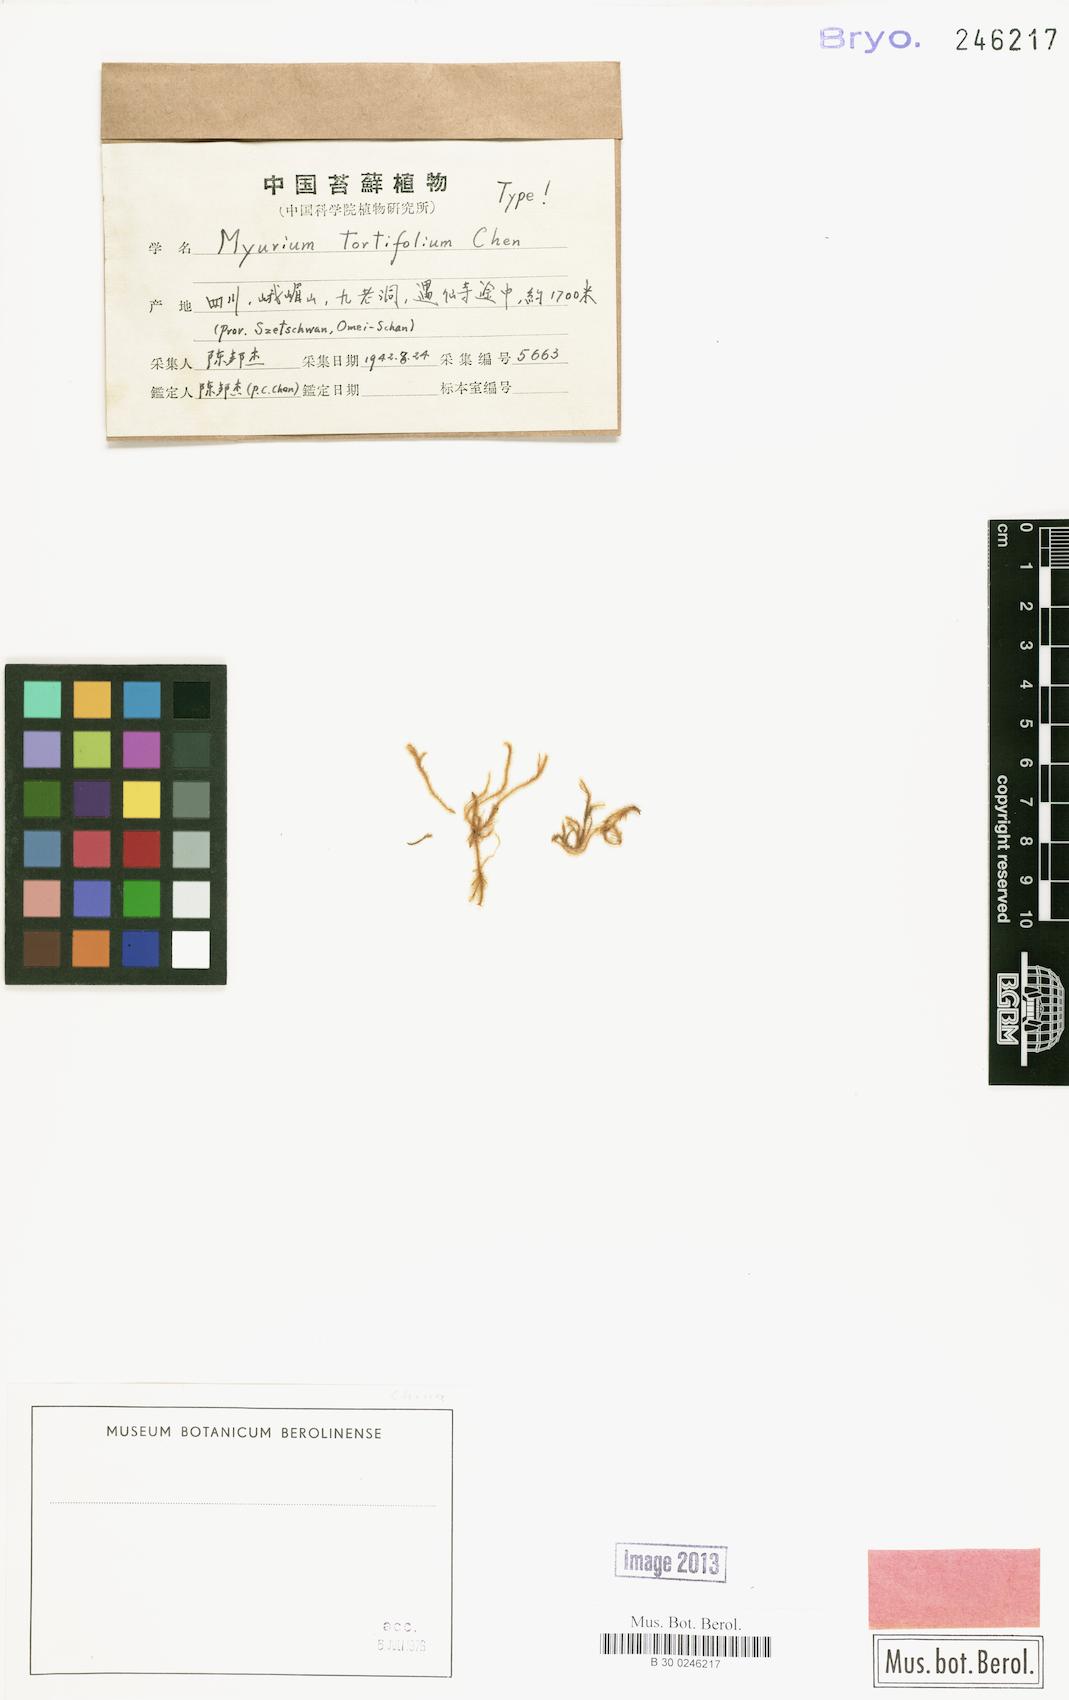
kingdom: Plantae
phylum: Bryophyta
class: Bryopsida
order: Hypnales
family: Myuriaceae
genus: Oedicladium
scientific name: Oedicladium tortifolium
